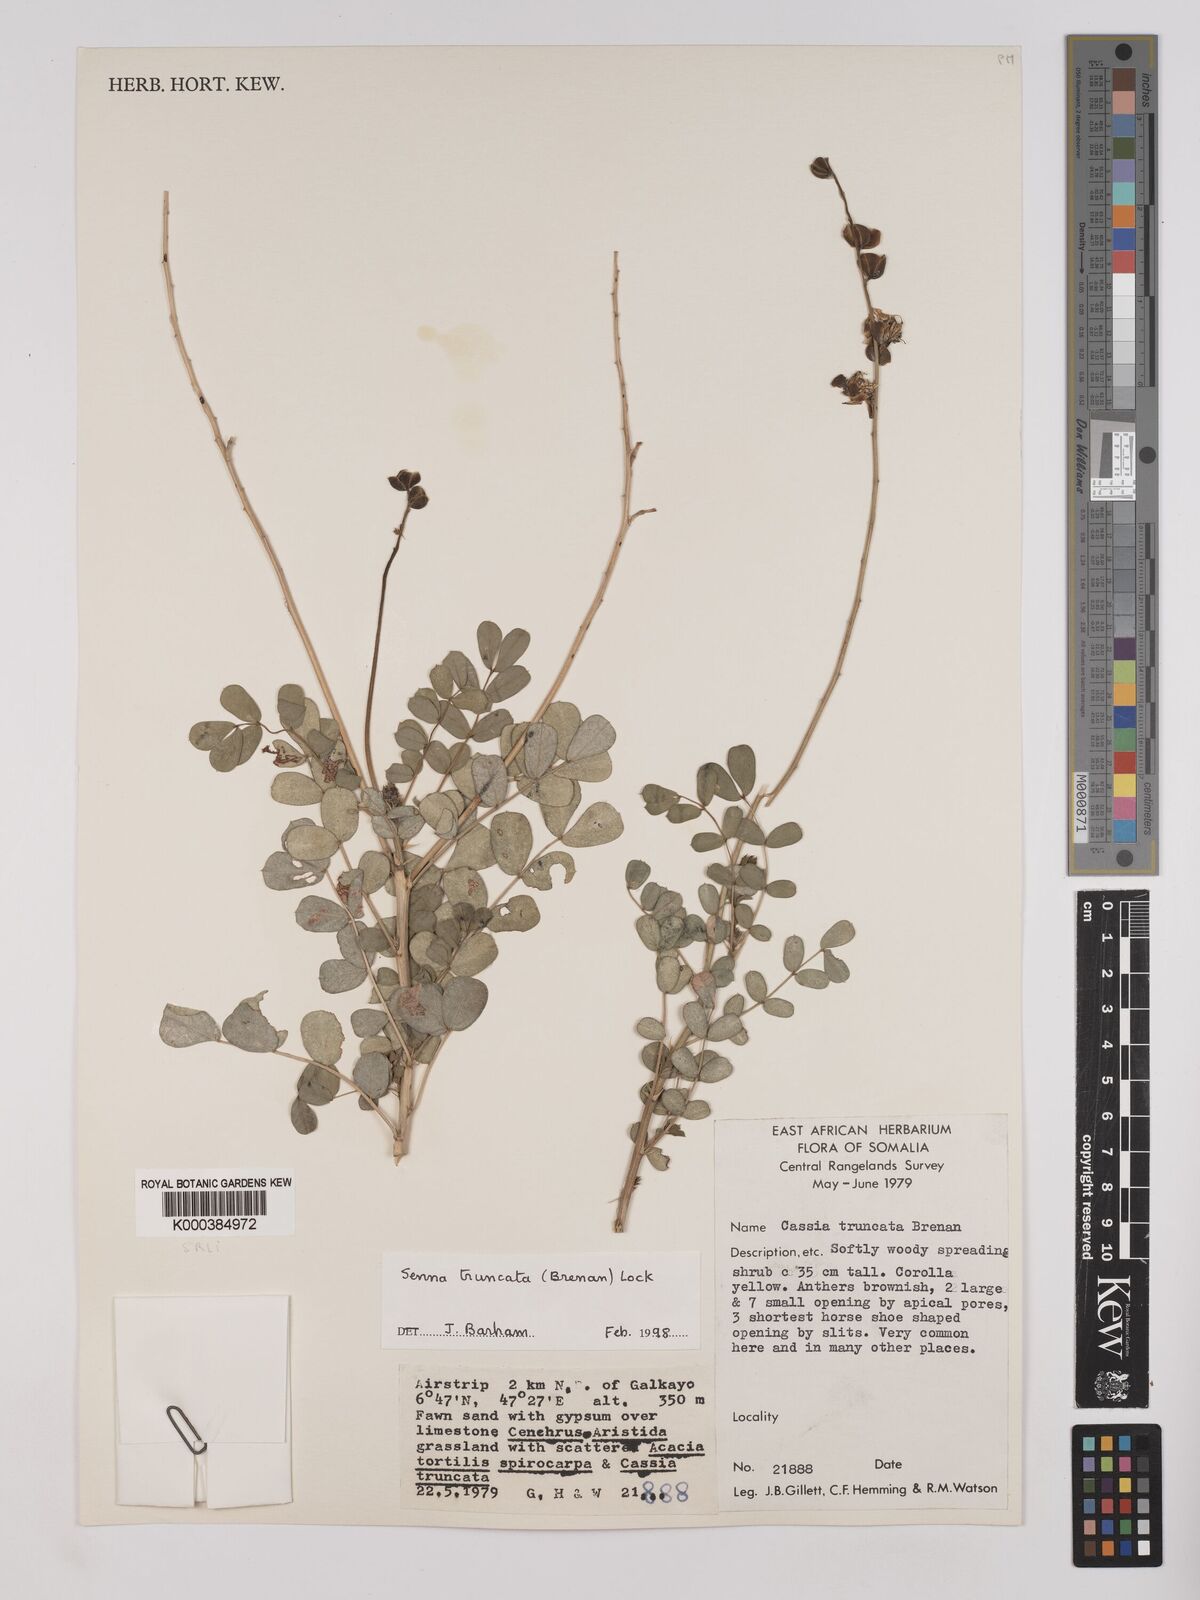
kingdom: Plantae
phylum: Tracheophyta
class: Magnoliopsida
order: Fabales
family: Fabaceae
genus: Senna
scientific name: Senna truncata
